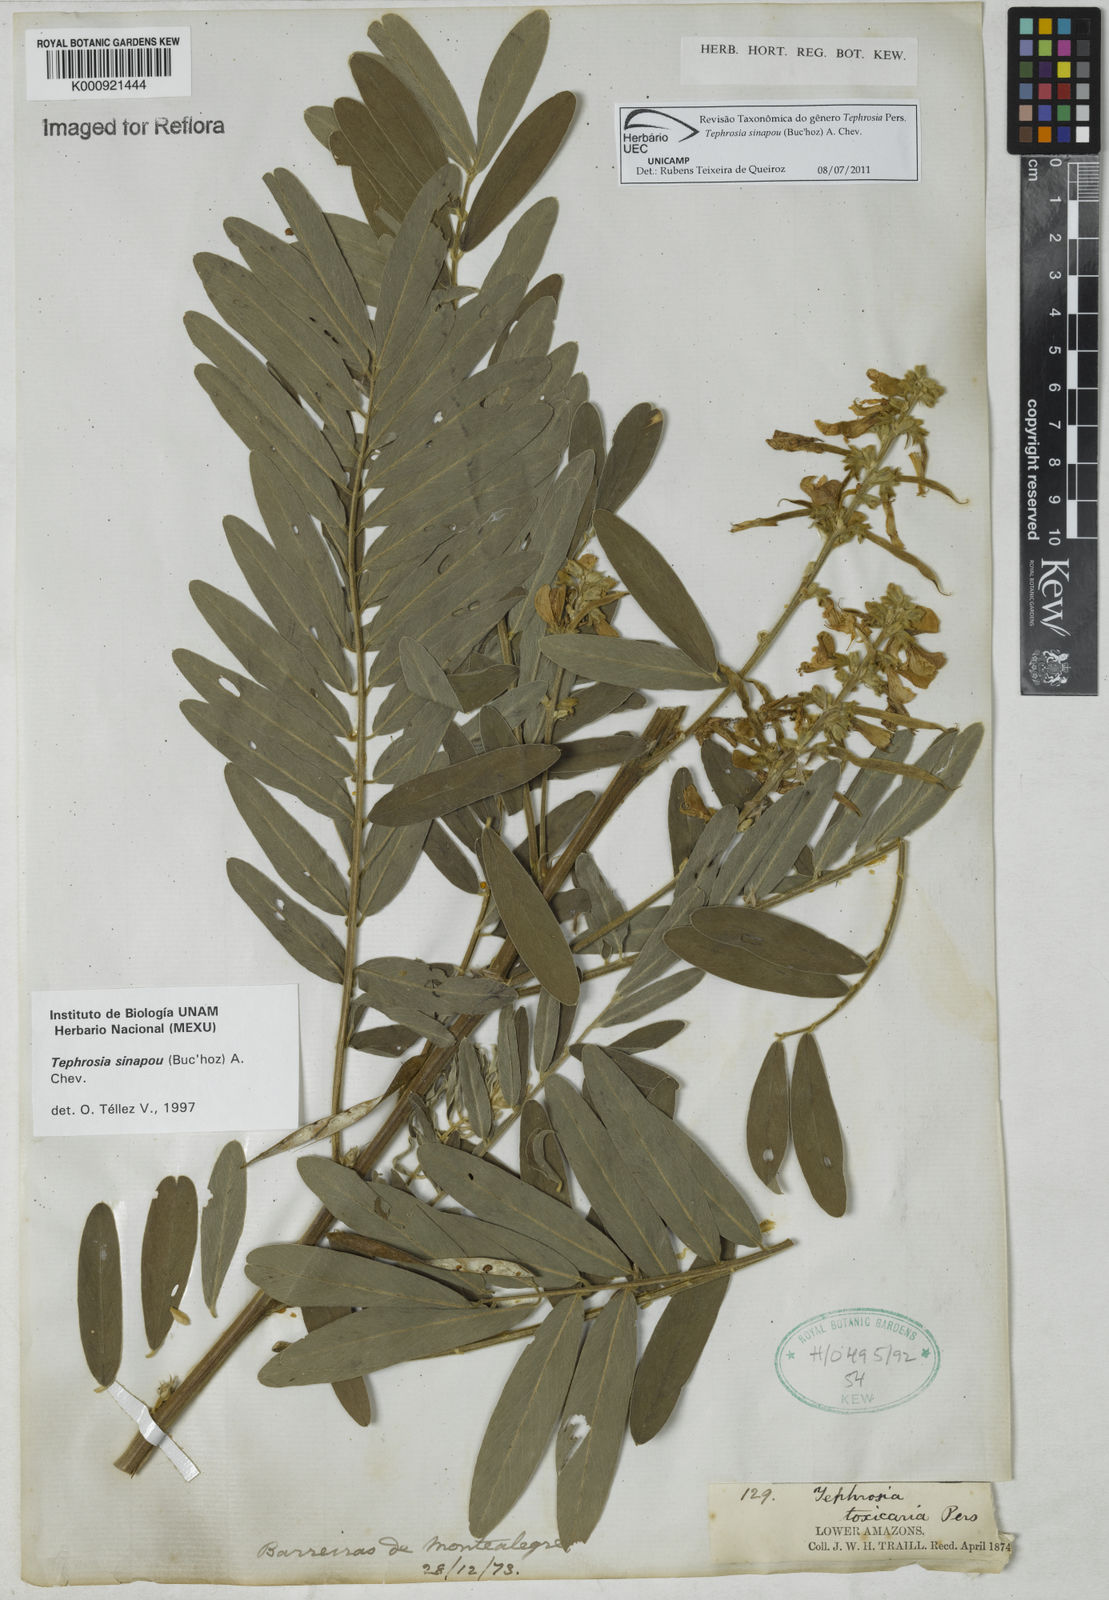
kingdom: Plantae
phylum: Tracheophyta
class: Magnoliopsida
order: Fabales
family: Fabaceae
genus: Tephrosia
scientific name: Tephrosia
